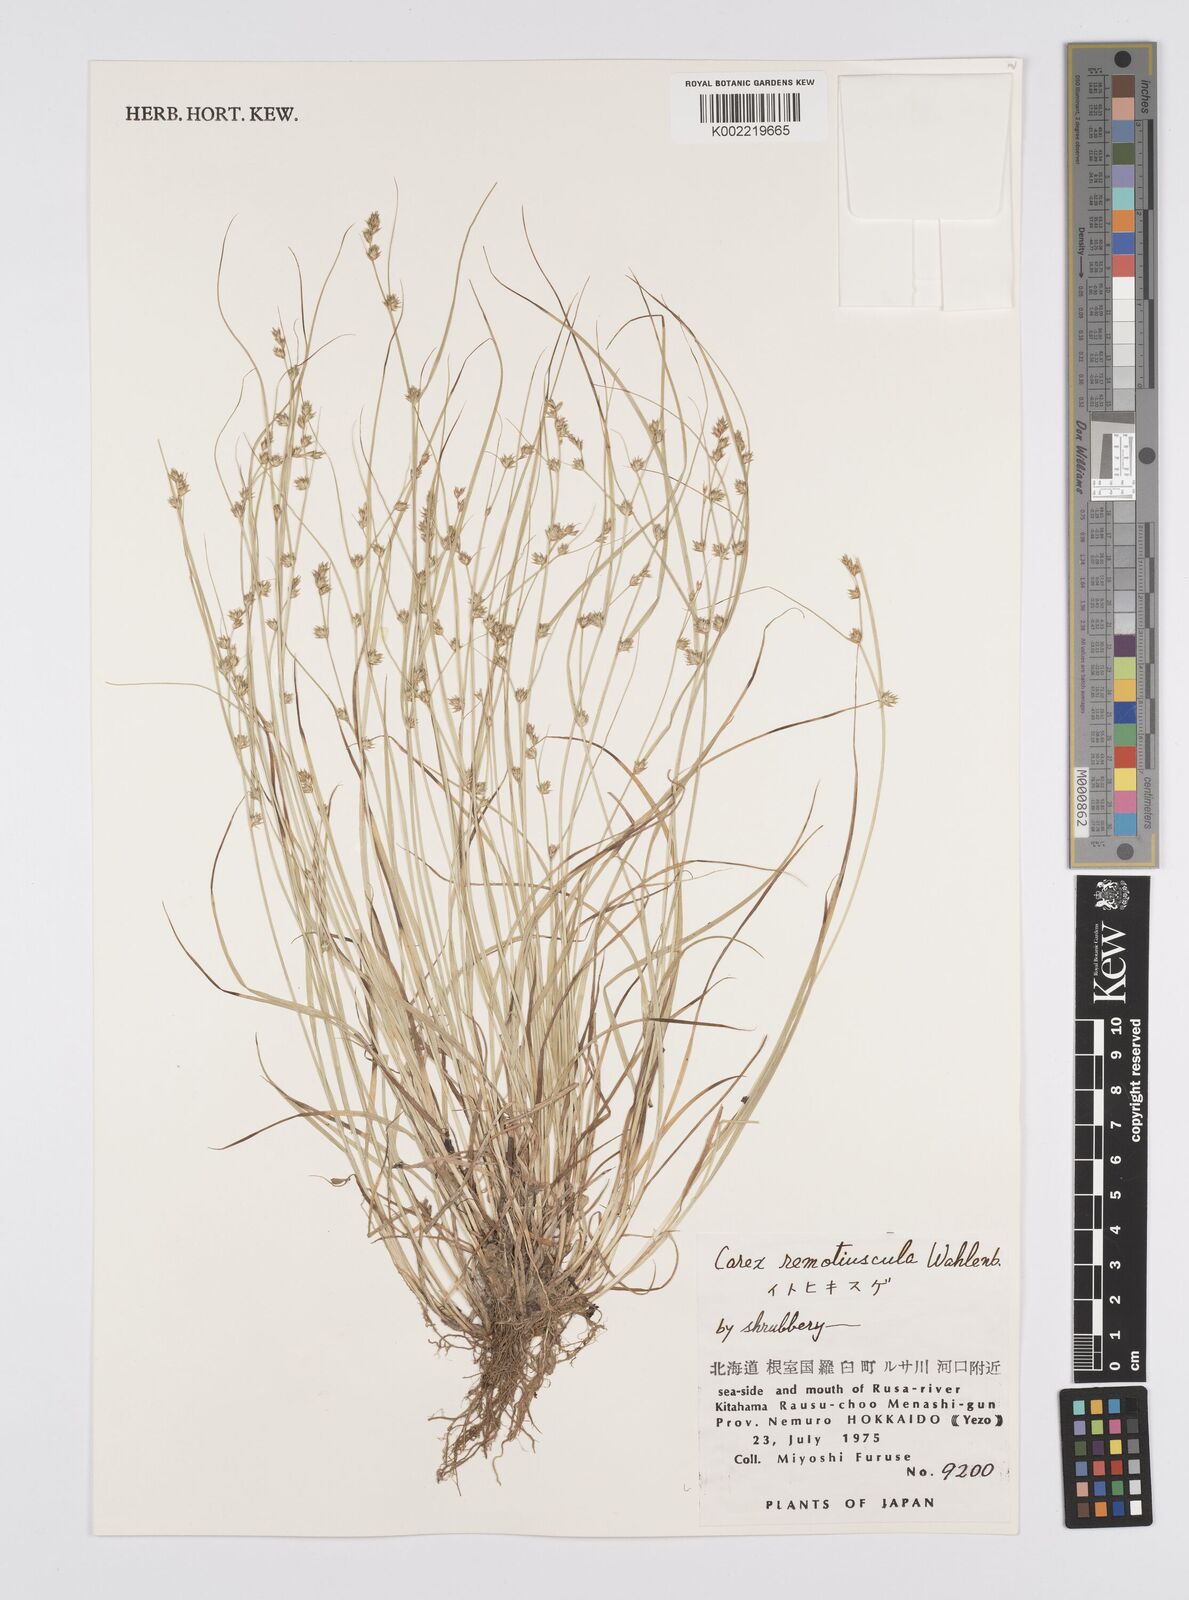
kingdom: Plantae
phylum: Tracheophyta
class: Liliopsida
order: Poales
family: Cyperaceae
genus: Carex
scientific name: Carex traiziscana
